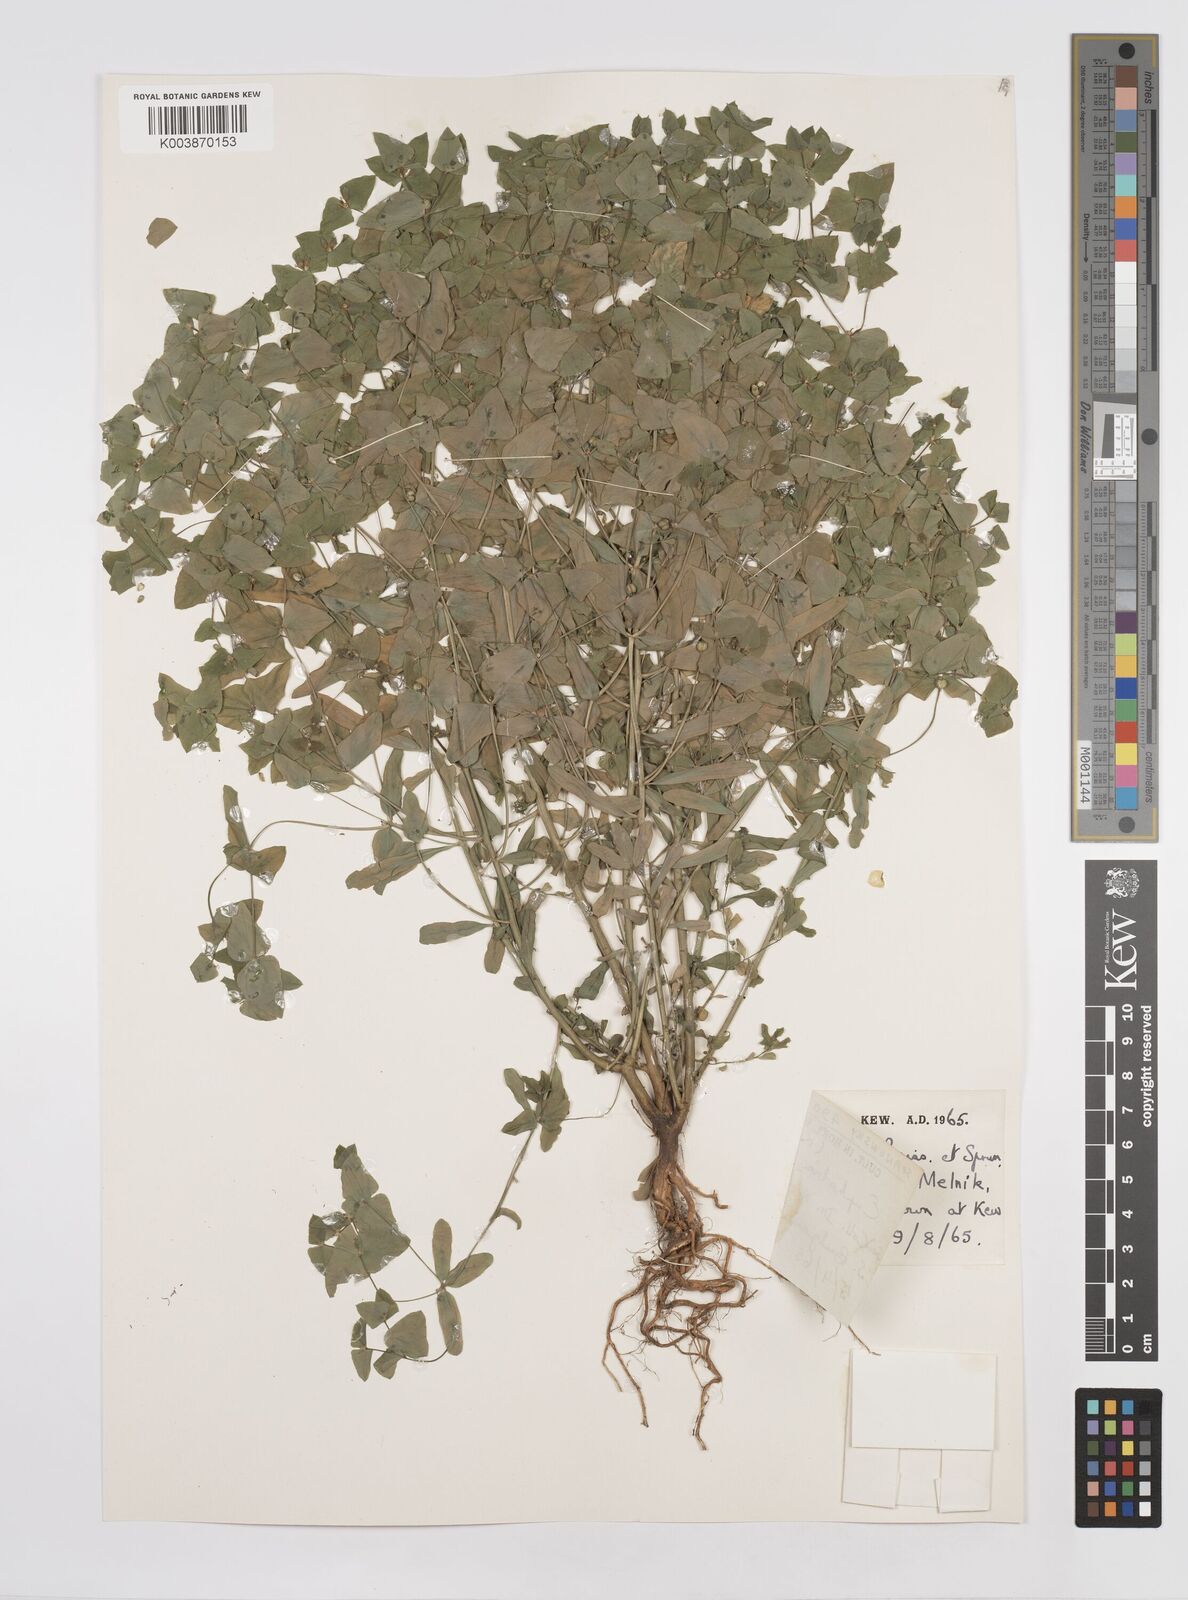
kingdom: Plantae
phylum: Tracheophyta
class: Magnoliopsida
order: Malpighiales
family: Euphorbiaceae
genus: Euphorbia
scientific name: Euphorbia taurinensis
